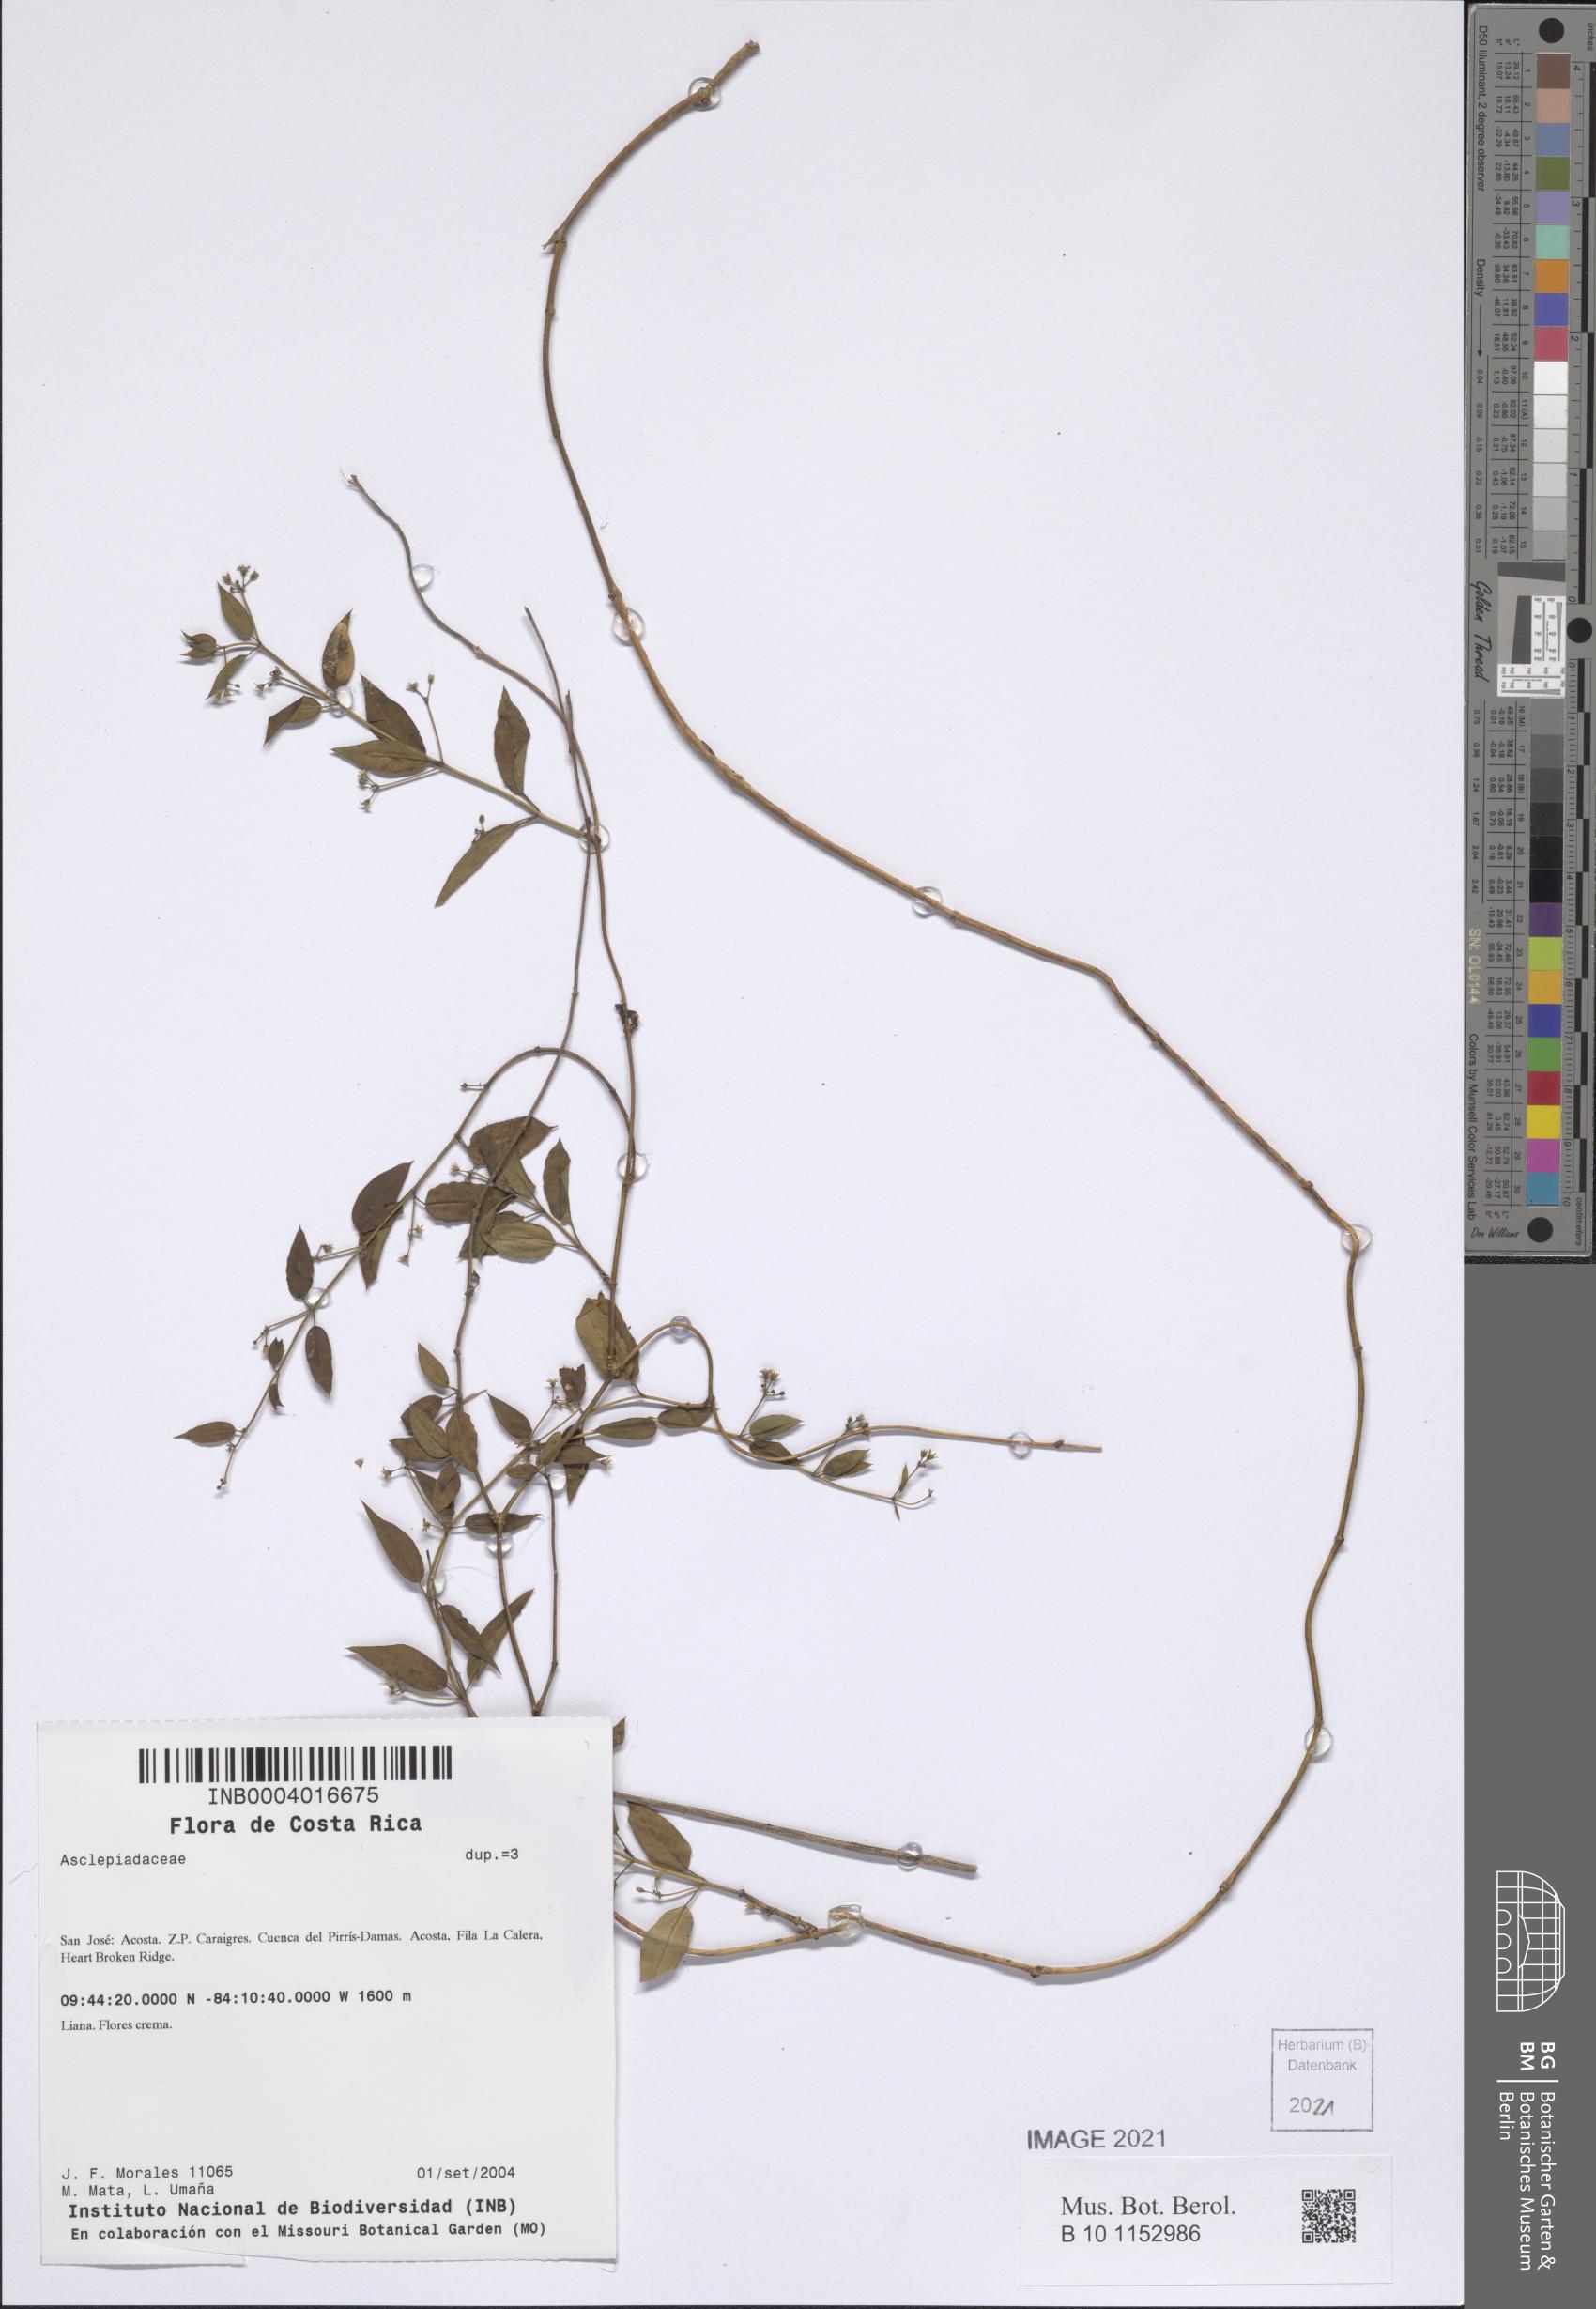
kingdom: Plantae
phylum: Tracheophyta
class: Magnoliopsida
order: Gentianales
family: Apocynaceae
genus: Metastelma
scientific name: Metastelma sepicola
